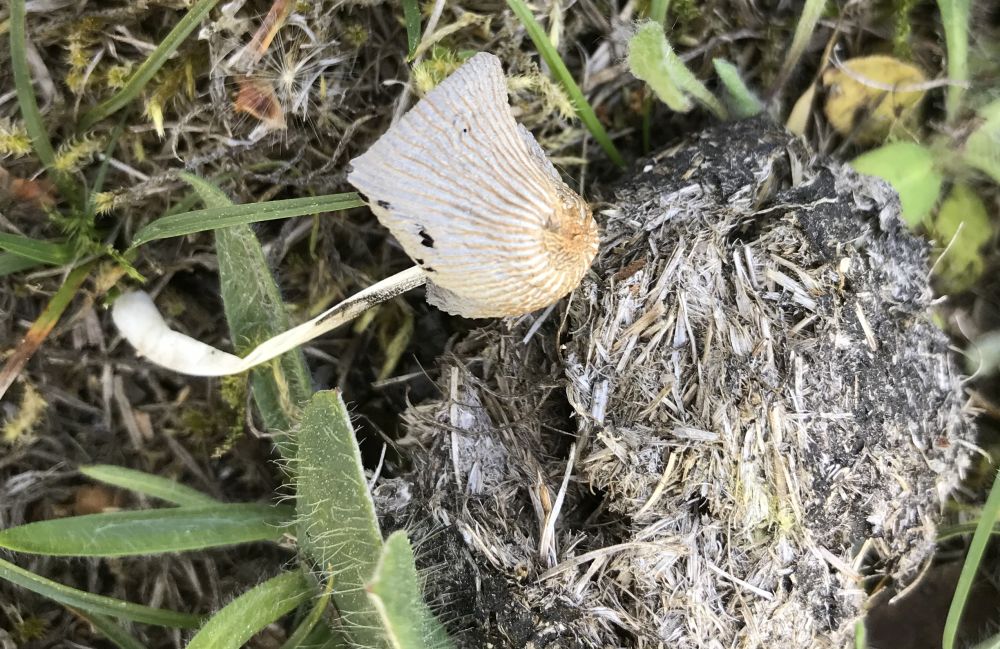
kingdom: Fungi
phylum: Basidiomycota
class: Agaricomycetes
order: Agaricales
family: Psathyrellaceae
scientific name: Psathyrellaceae
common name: mørkhatfamilien
